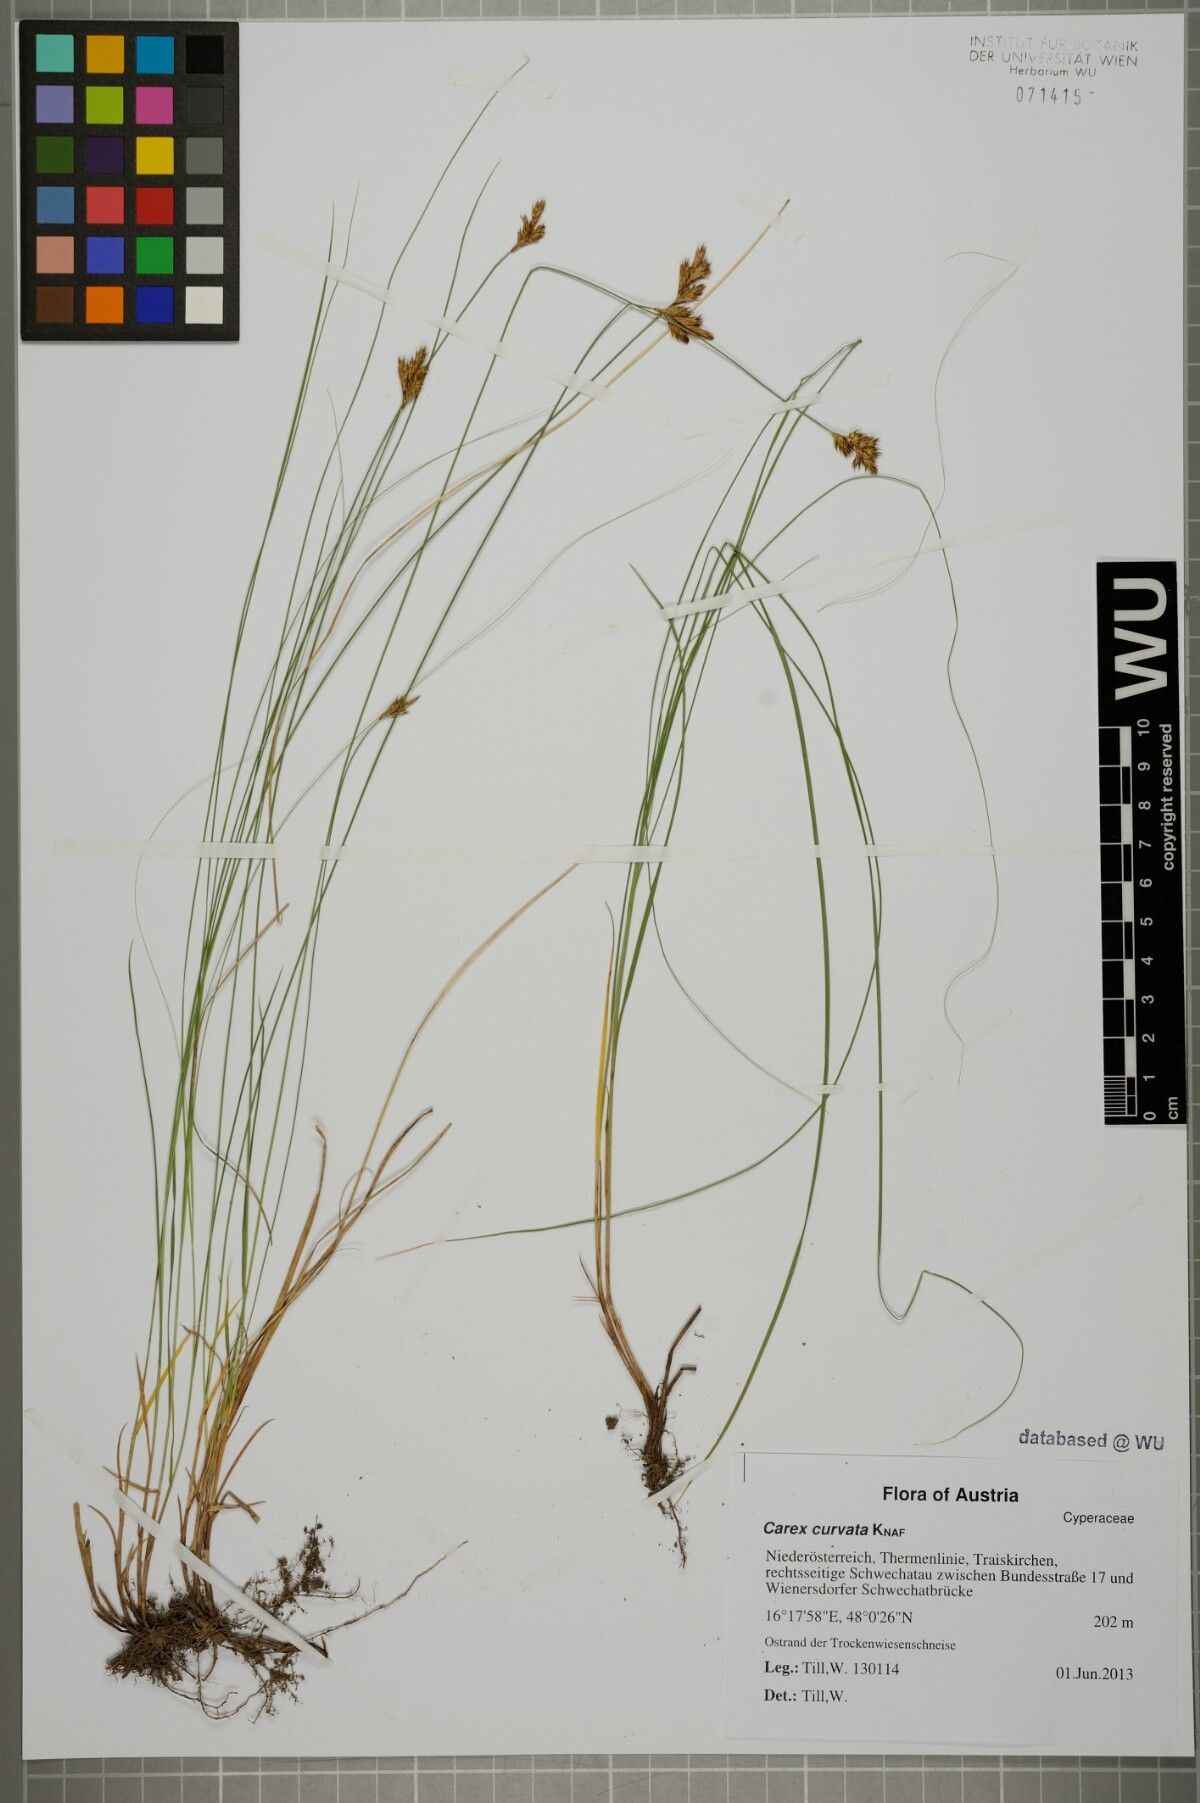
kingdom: Plantae
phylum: Tracheophyta
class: Liliopsida
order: Poales
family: Cyperaceae
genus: Carex
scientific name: Carex curvata
